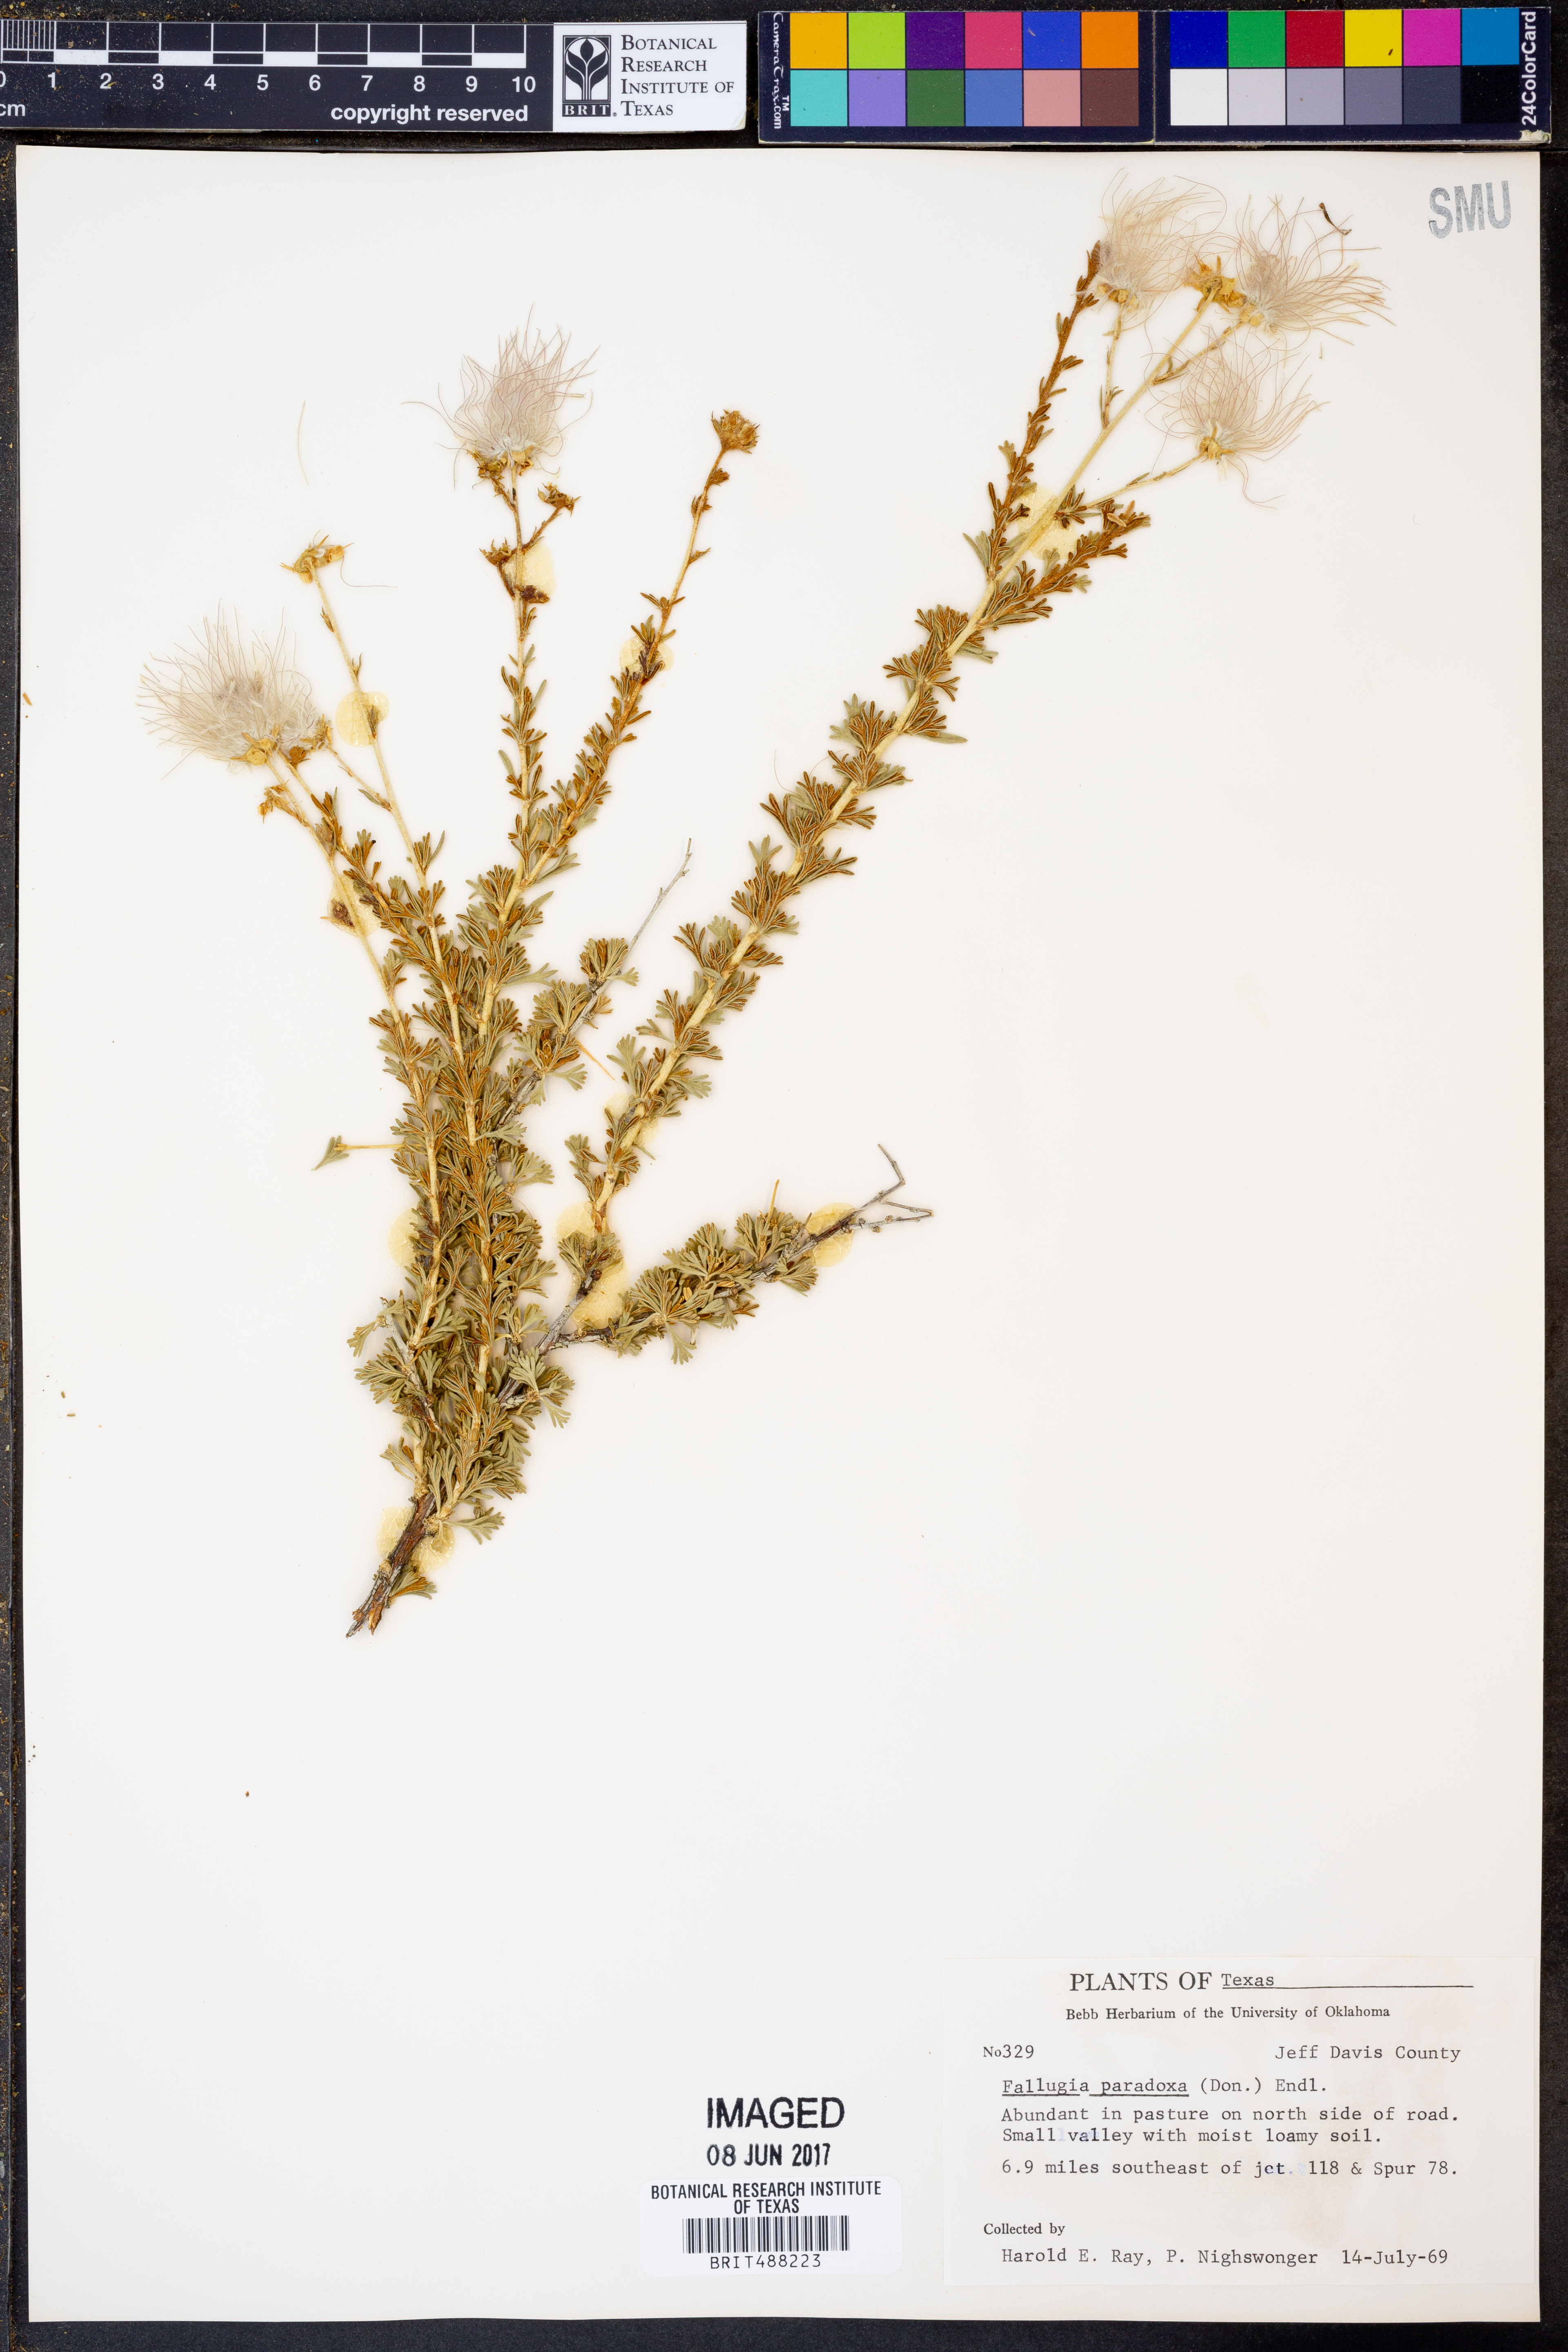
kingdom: Plantae
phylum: Tracheophyta
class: Magnoliopsida
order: Rosales
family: Rosaceae
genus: Fallugia
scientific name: Fallugia paradoxa
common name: Apache-plume
